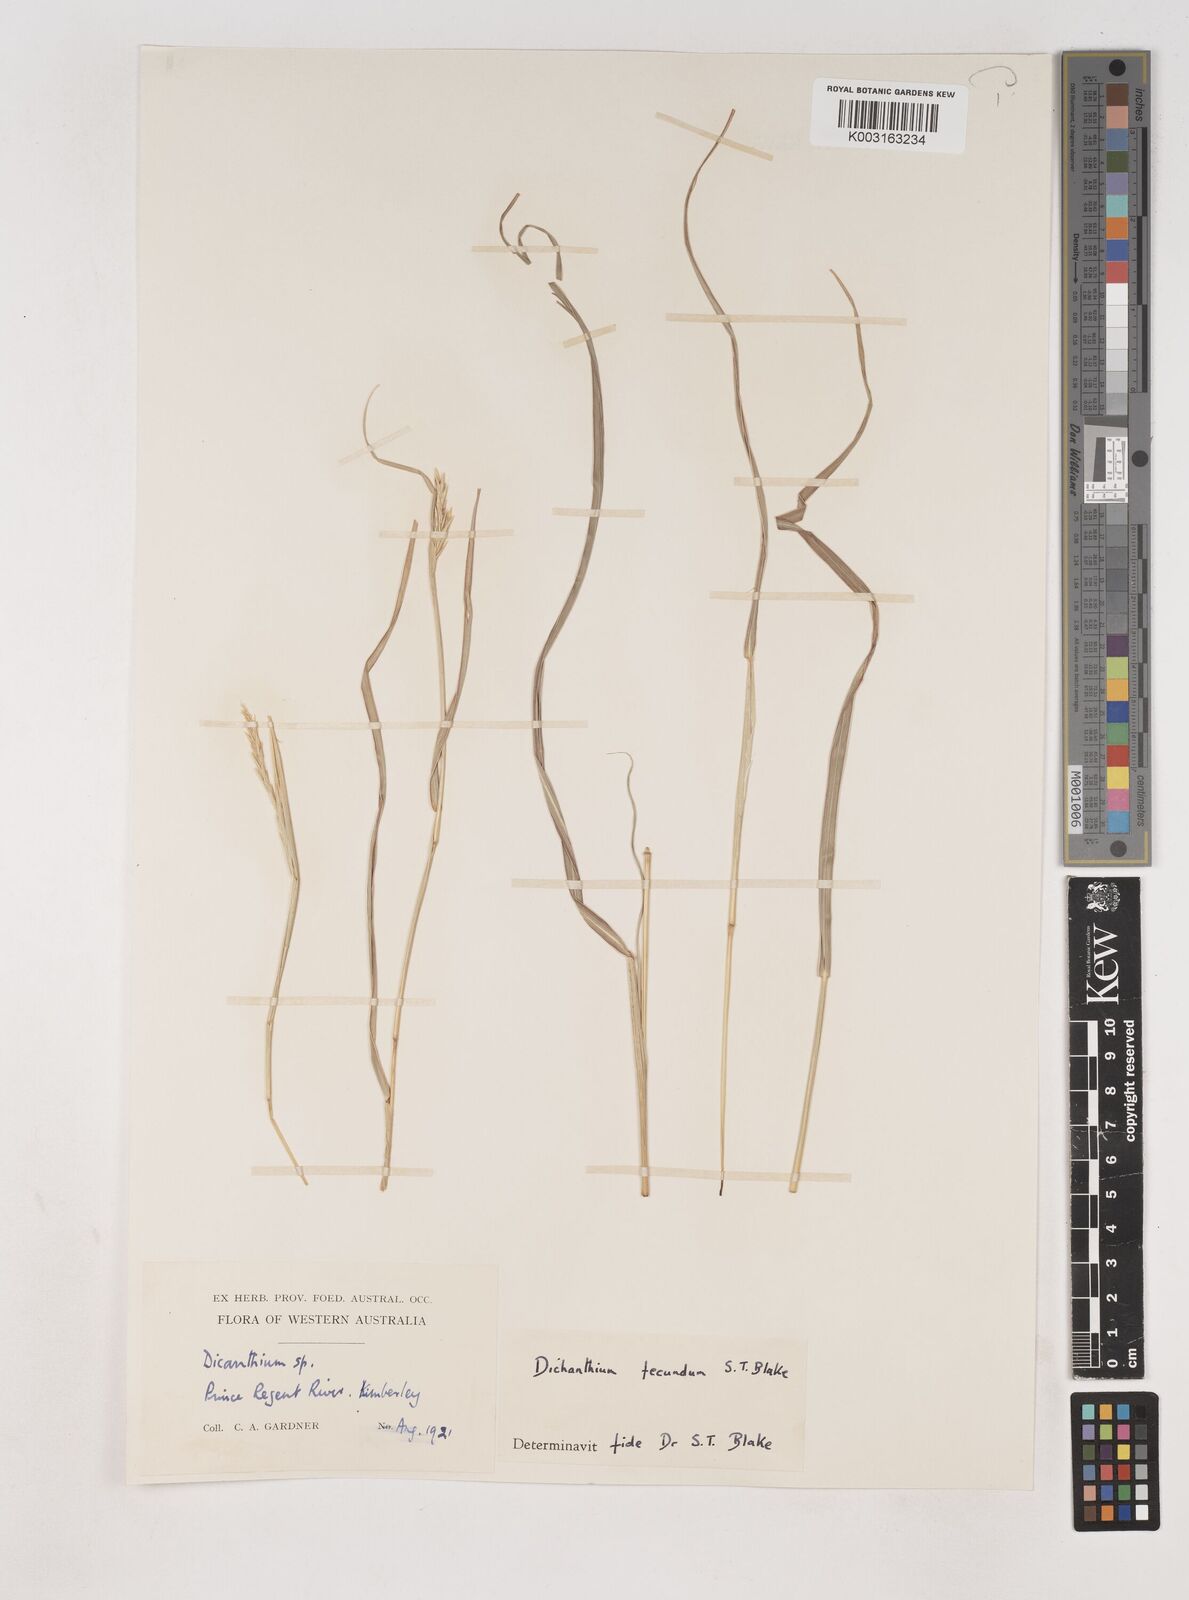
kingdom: Plantae
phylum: Tracheophyta
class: Liliopsida
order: Poales
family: Poaceae
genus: Dichanthium
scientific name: Dichanthium fecundum
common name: Bundle-bundle
